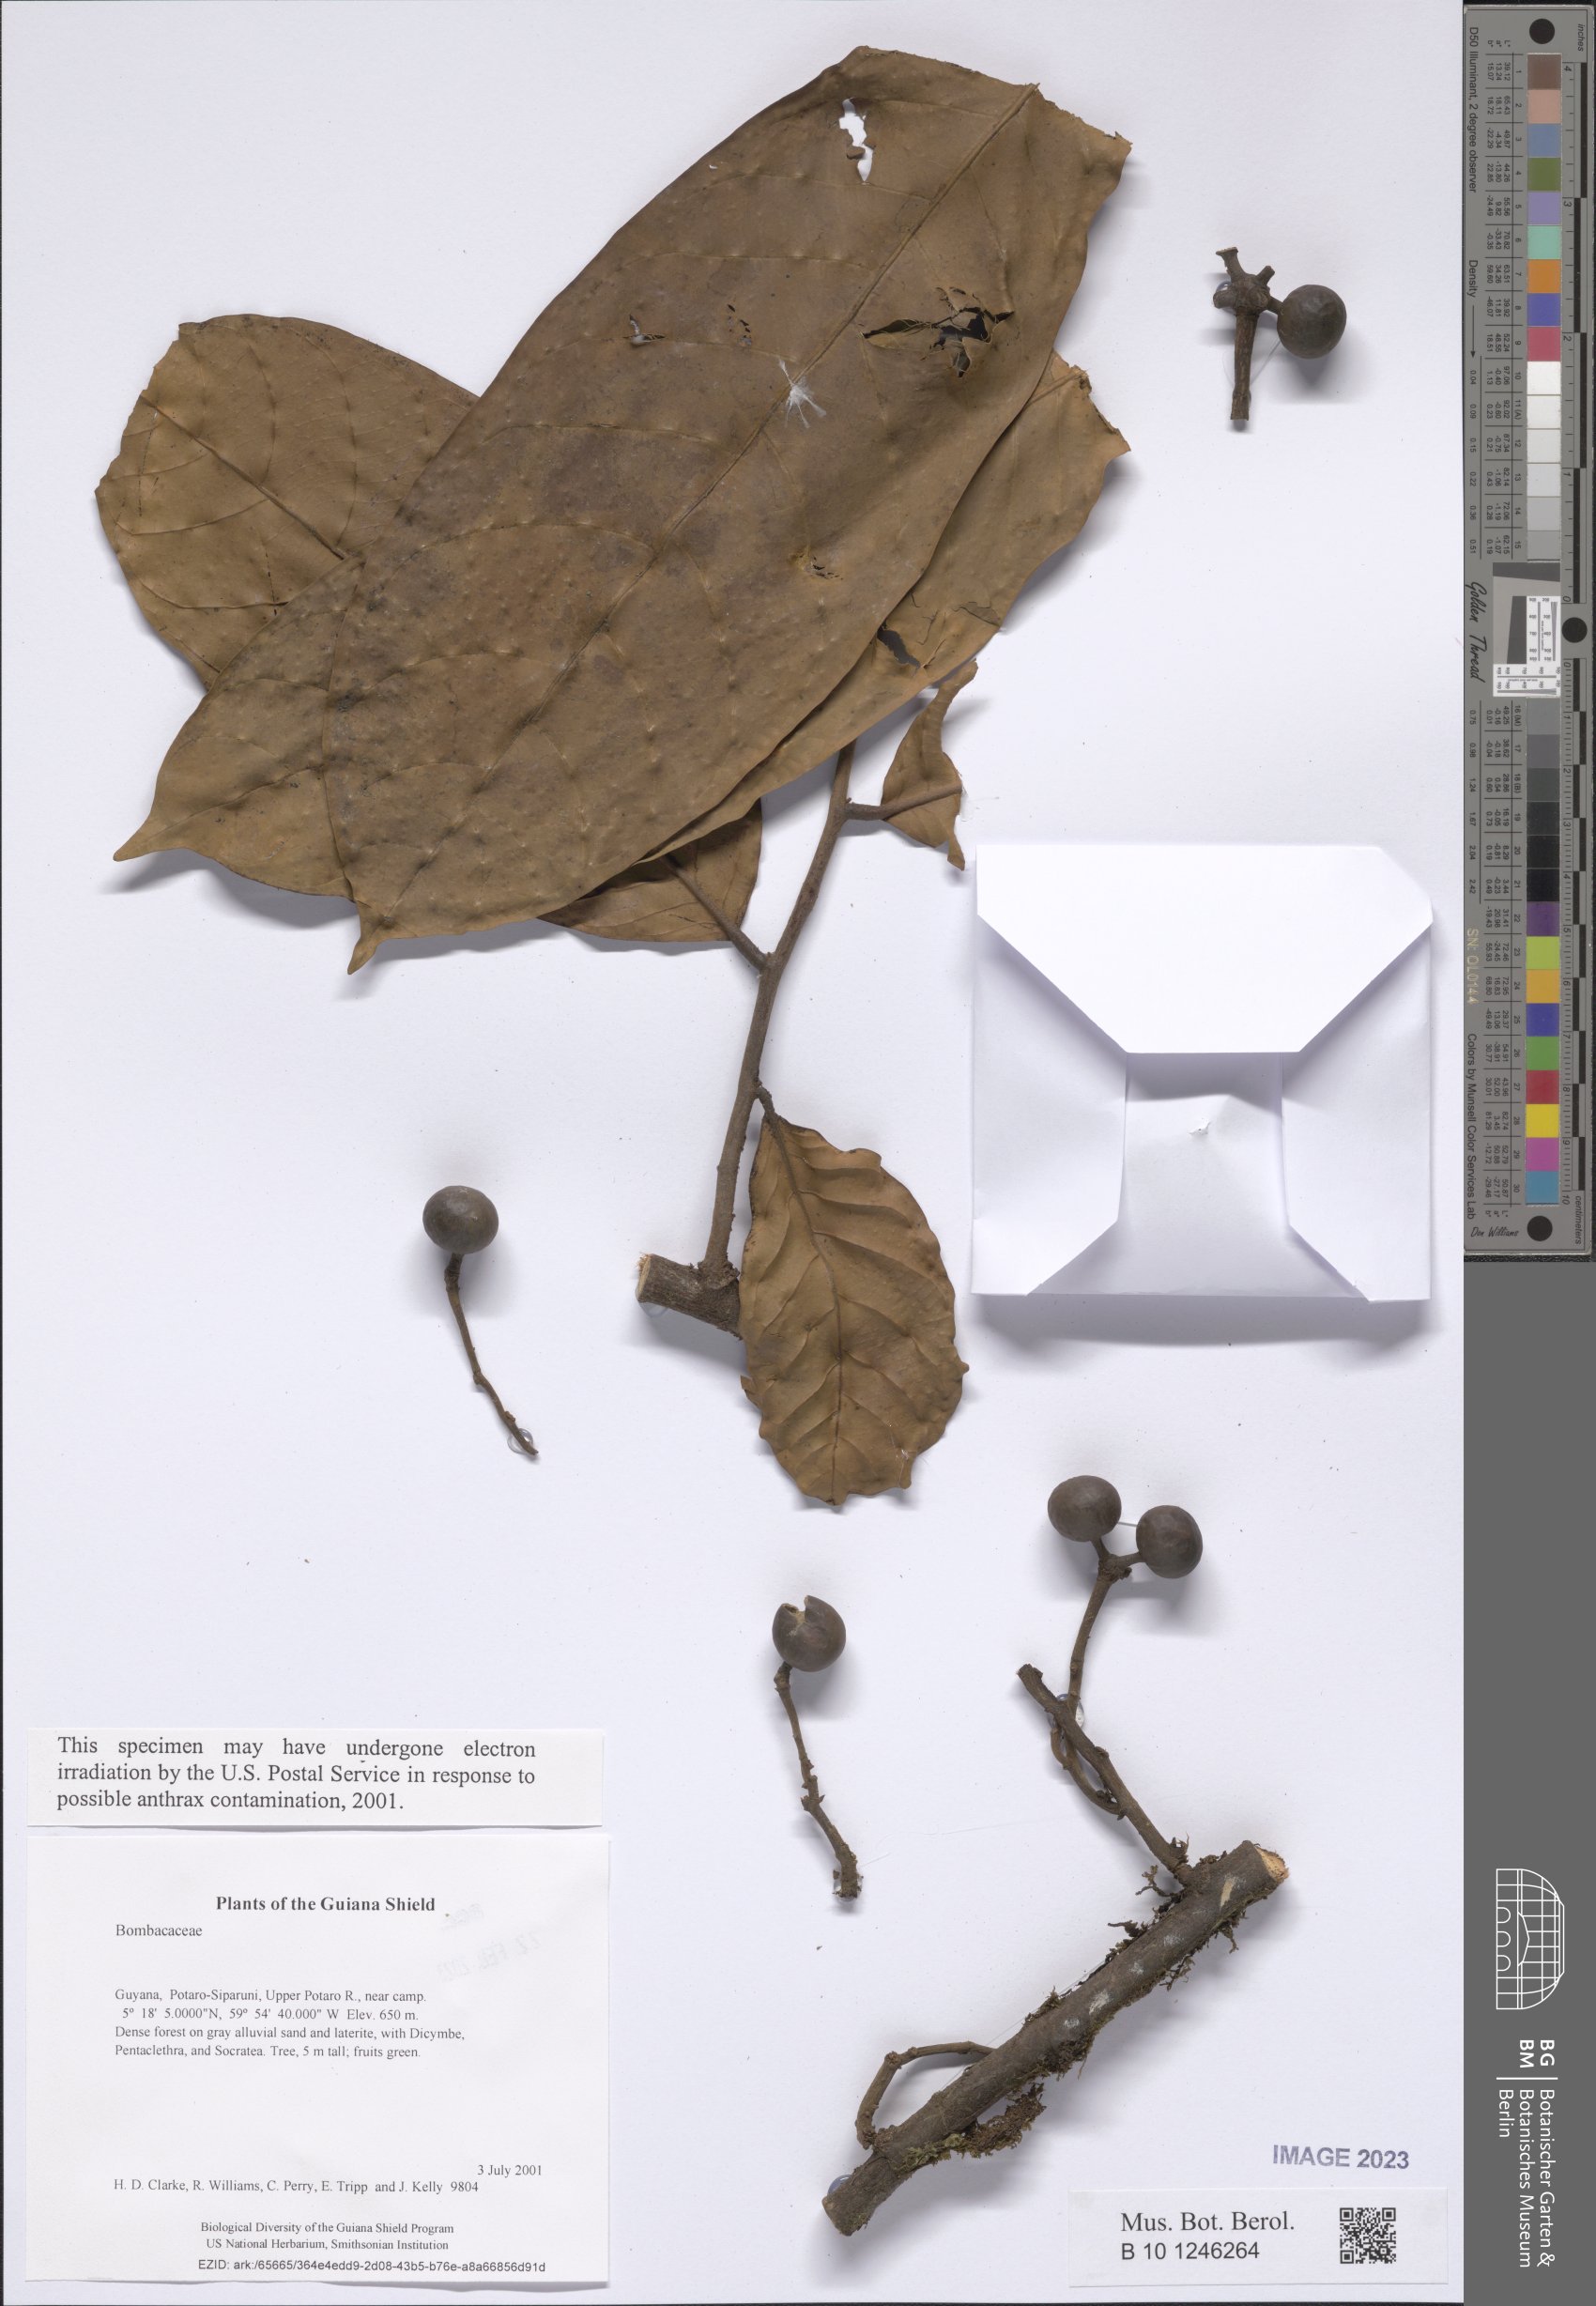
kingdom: Plantae
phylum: Tracheophyta
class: Magnoliopsida
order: Malvales
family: Malvaceae
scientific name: Malvaceae
